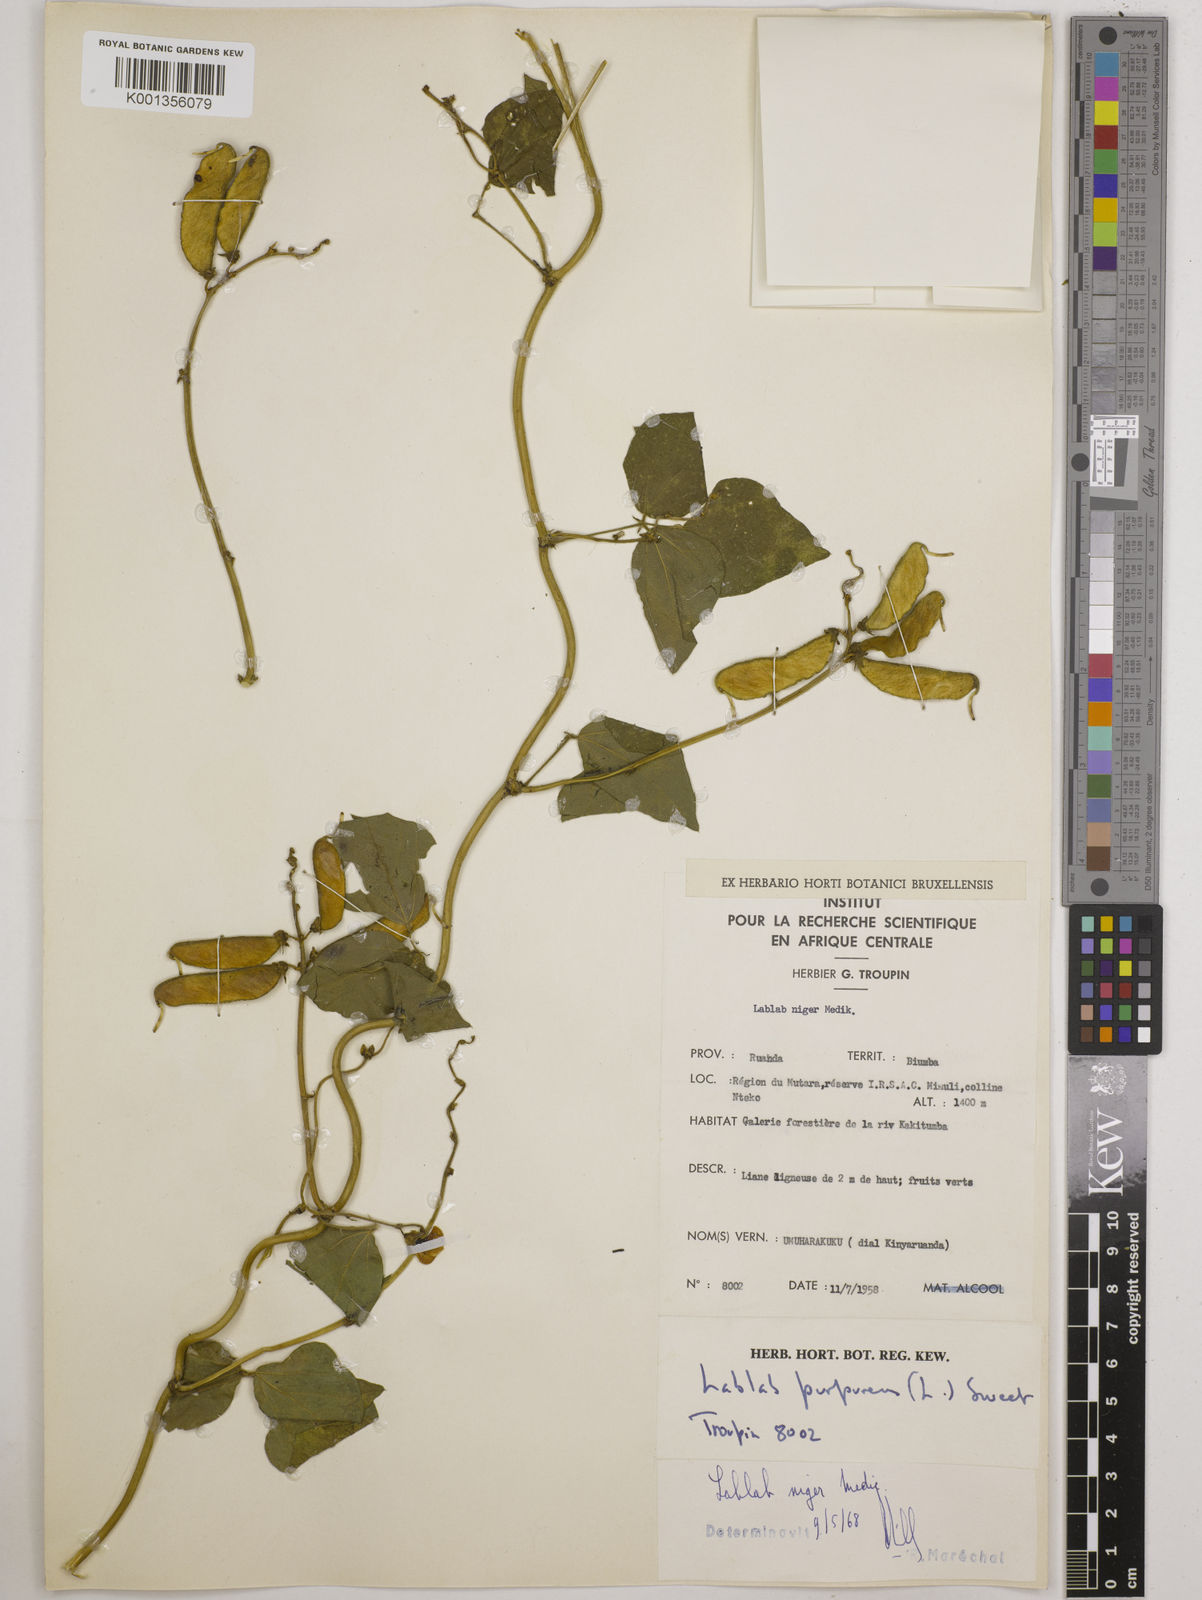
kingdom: Plantae
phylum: Tracheophyta
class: Magnoliopsida
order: Fabales
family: Fabaceae
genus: Lablab
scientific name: Lablab purpureus
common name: Lablab-bean
